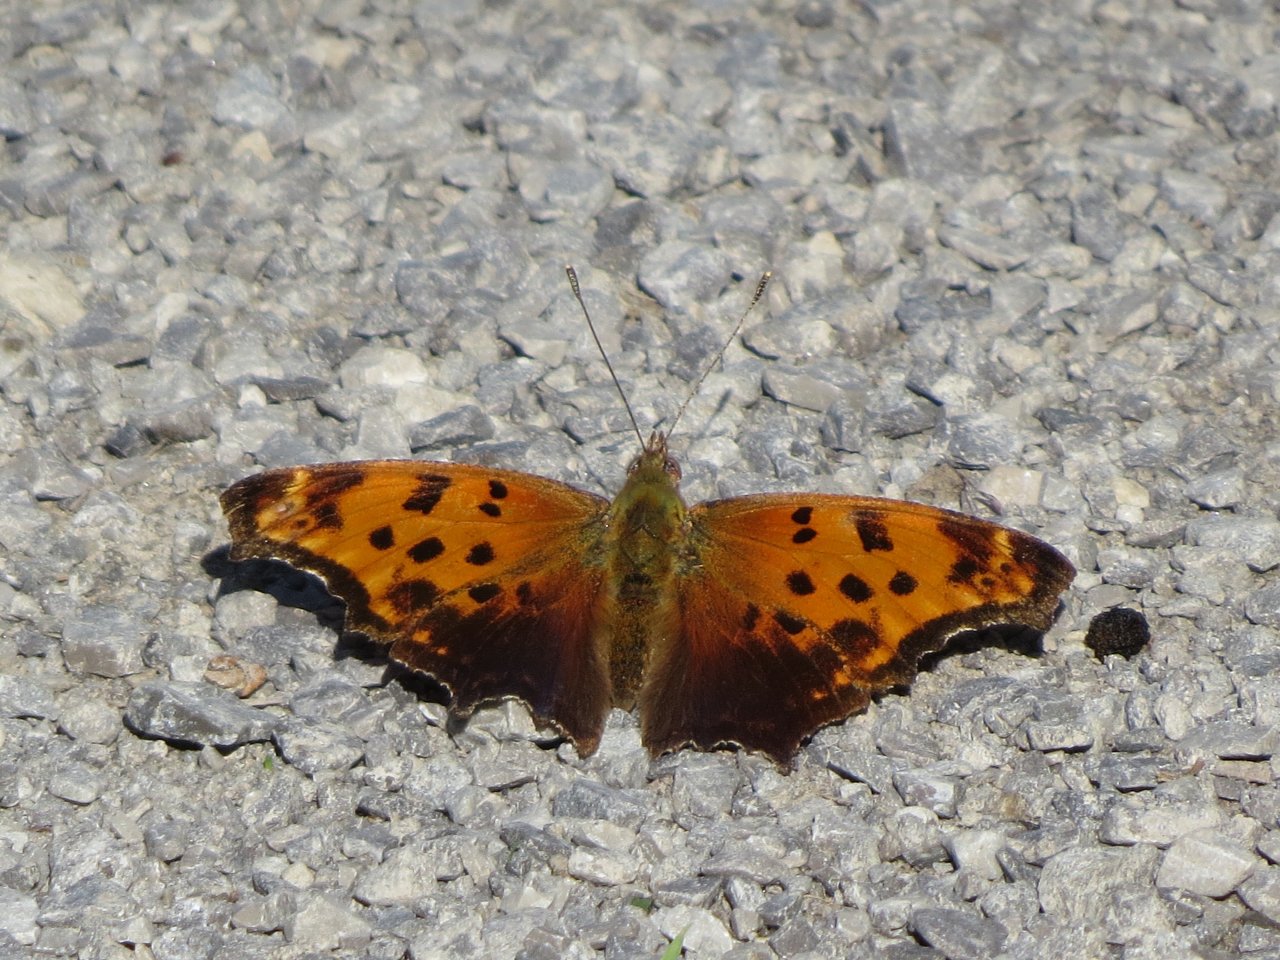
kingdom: Animalia
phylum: Arthropoda
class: Insecta
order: Lepidoptera
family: Nymphalidae
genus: Polygonia
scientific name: Polygonia comma
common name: Eastern Comma
